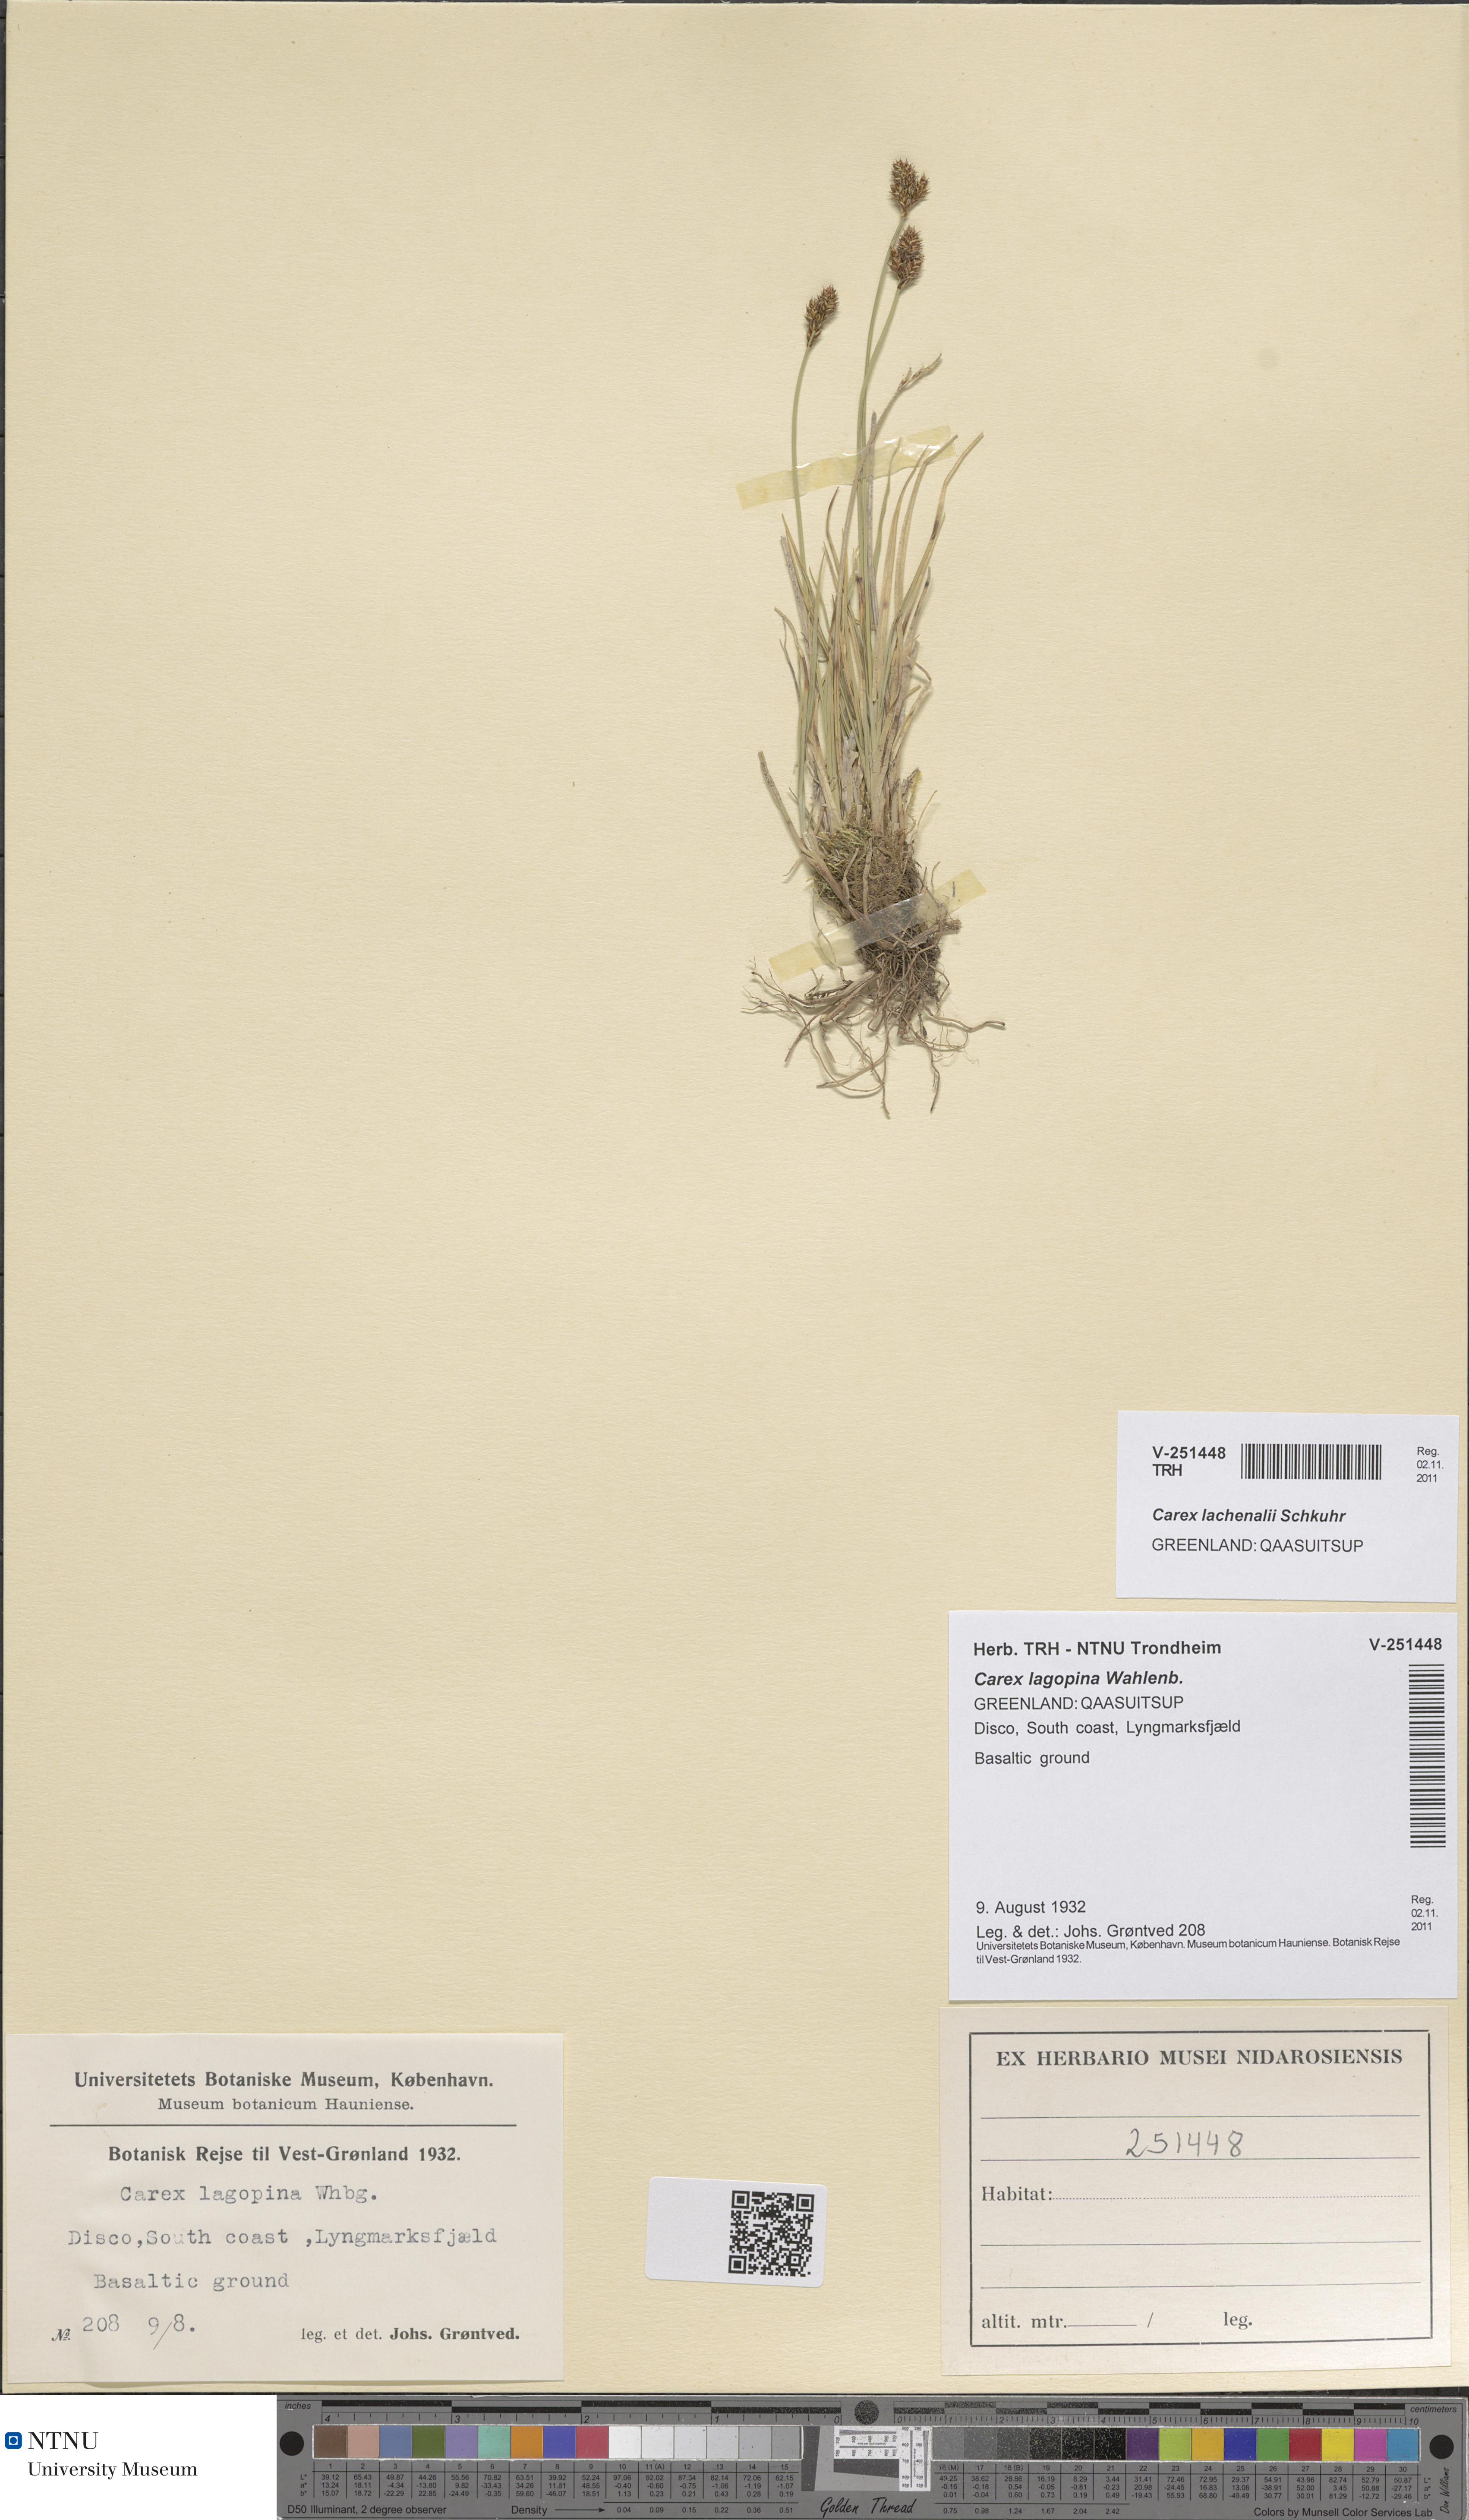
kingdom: Plantae
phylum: Tracheophyta
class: Liliopsida
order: Poales
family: Cyperaceae
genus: Carex
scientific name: Carex lachenalii
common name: Hare's-foot sedge
